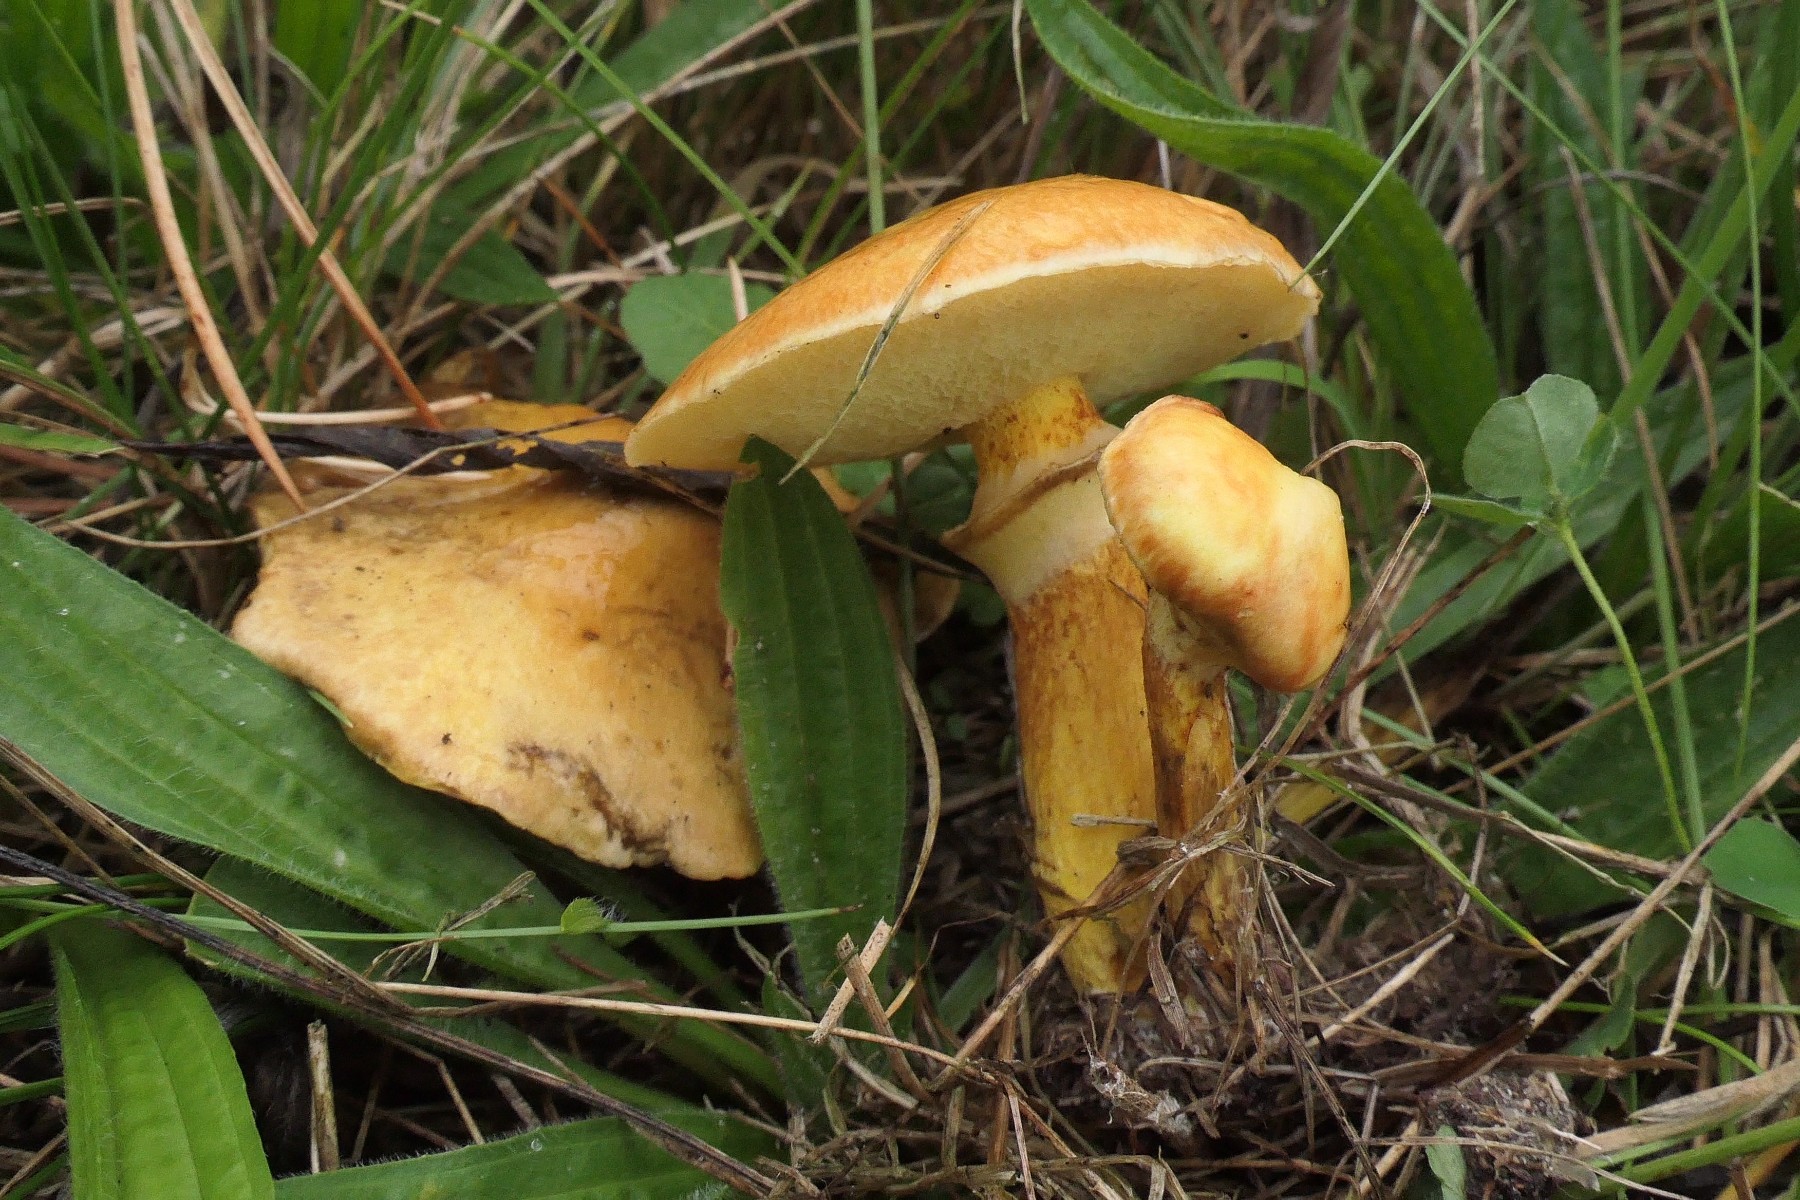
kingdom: Fungi
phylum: Basidiomycota
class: Agaricomycetes
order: Boletales
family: Suillaceae
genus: Suillus
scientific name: Suillus grevillei
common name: lærke-slimrørhat
